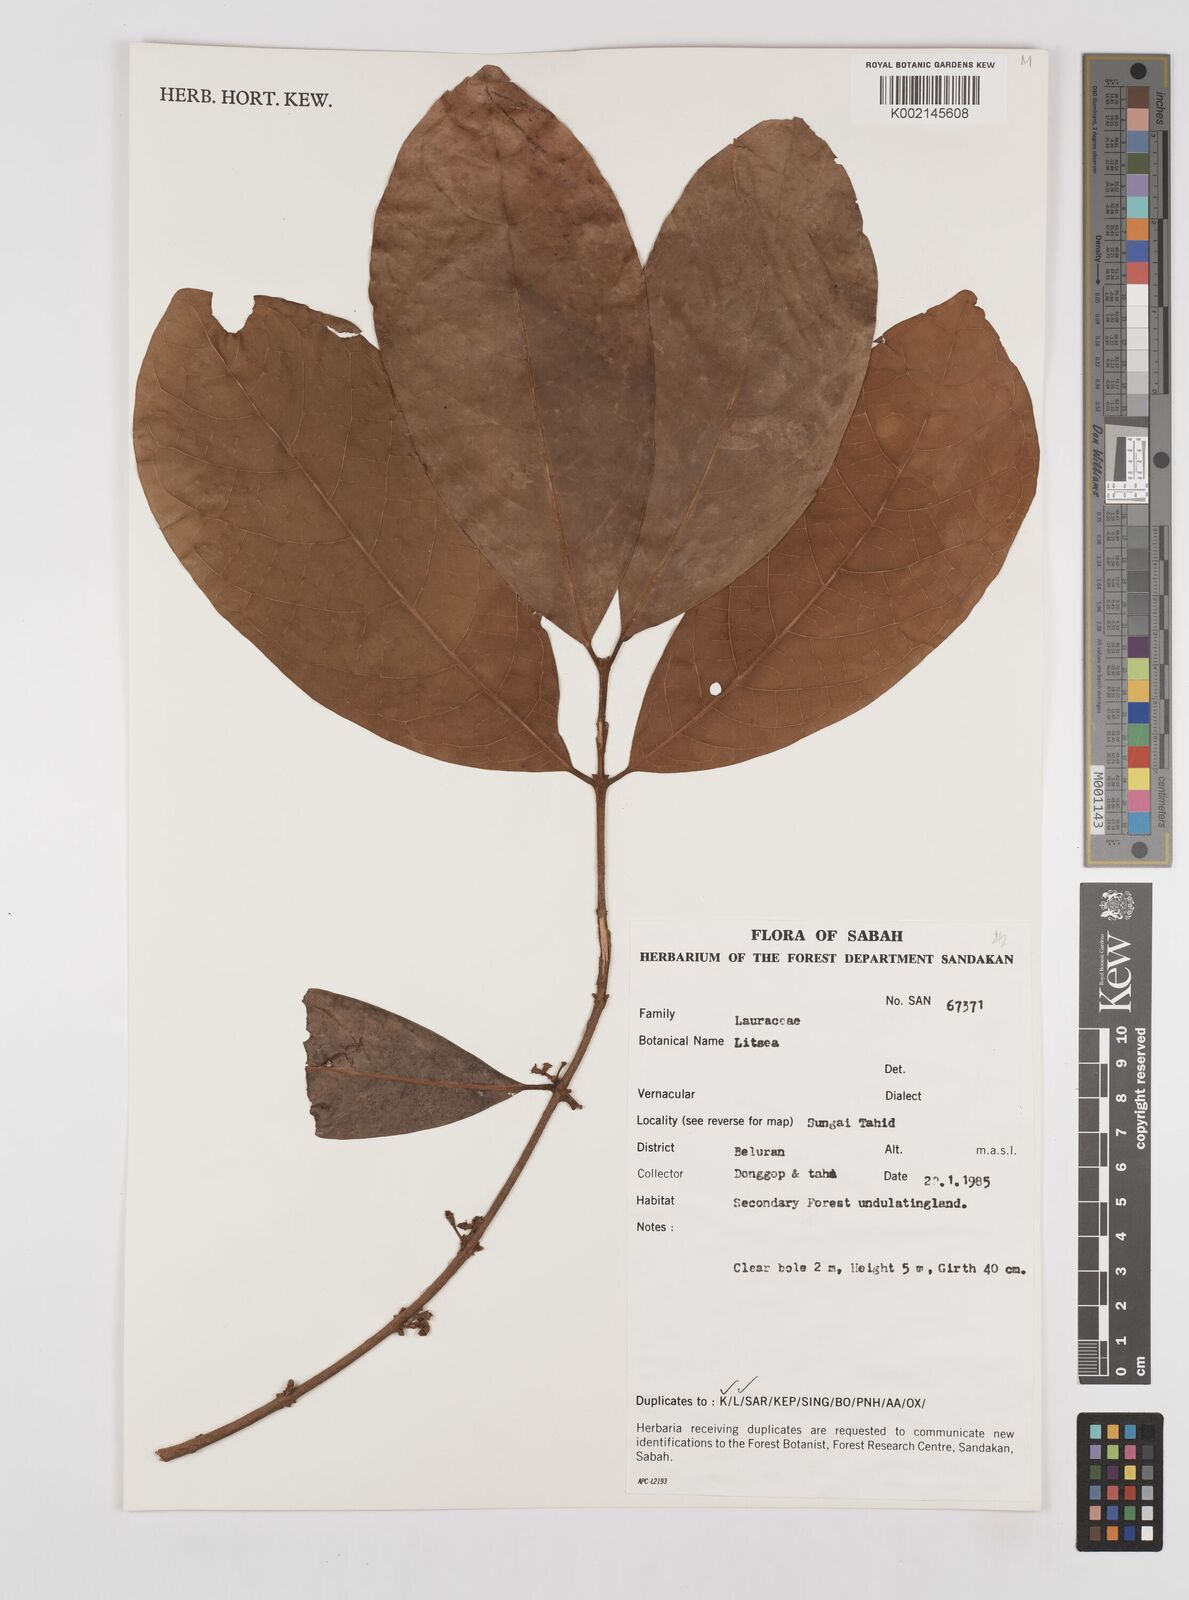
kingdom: Plantae
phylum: Tracheophyta
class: Magnoliopsida
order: Laurales
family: Lauraceae
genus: Litsea
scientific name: Litsea
